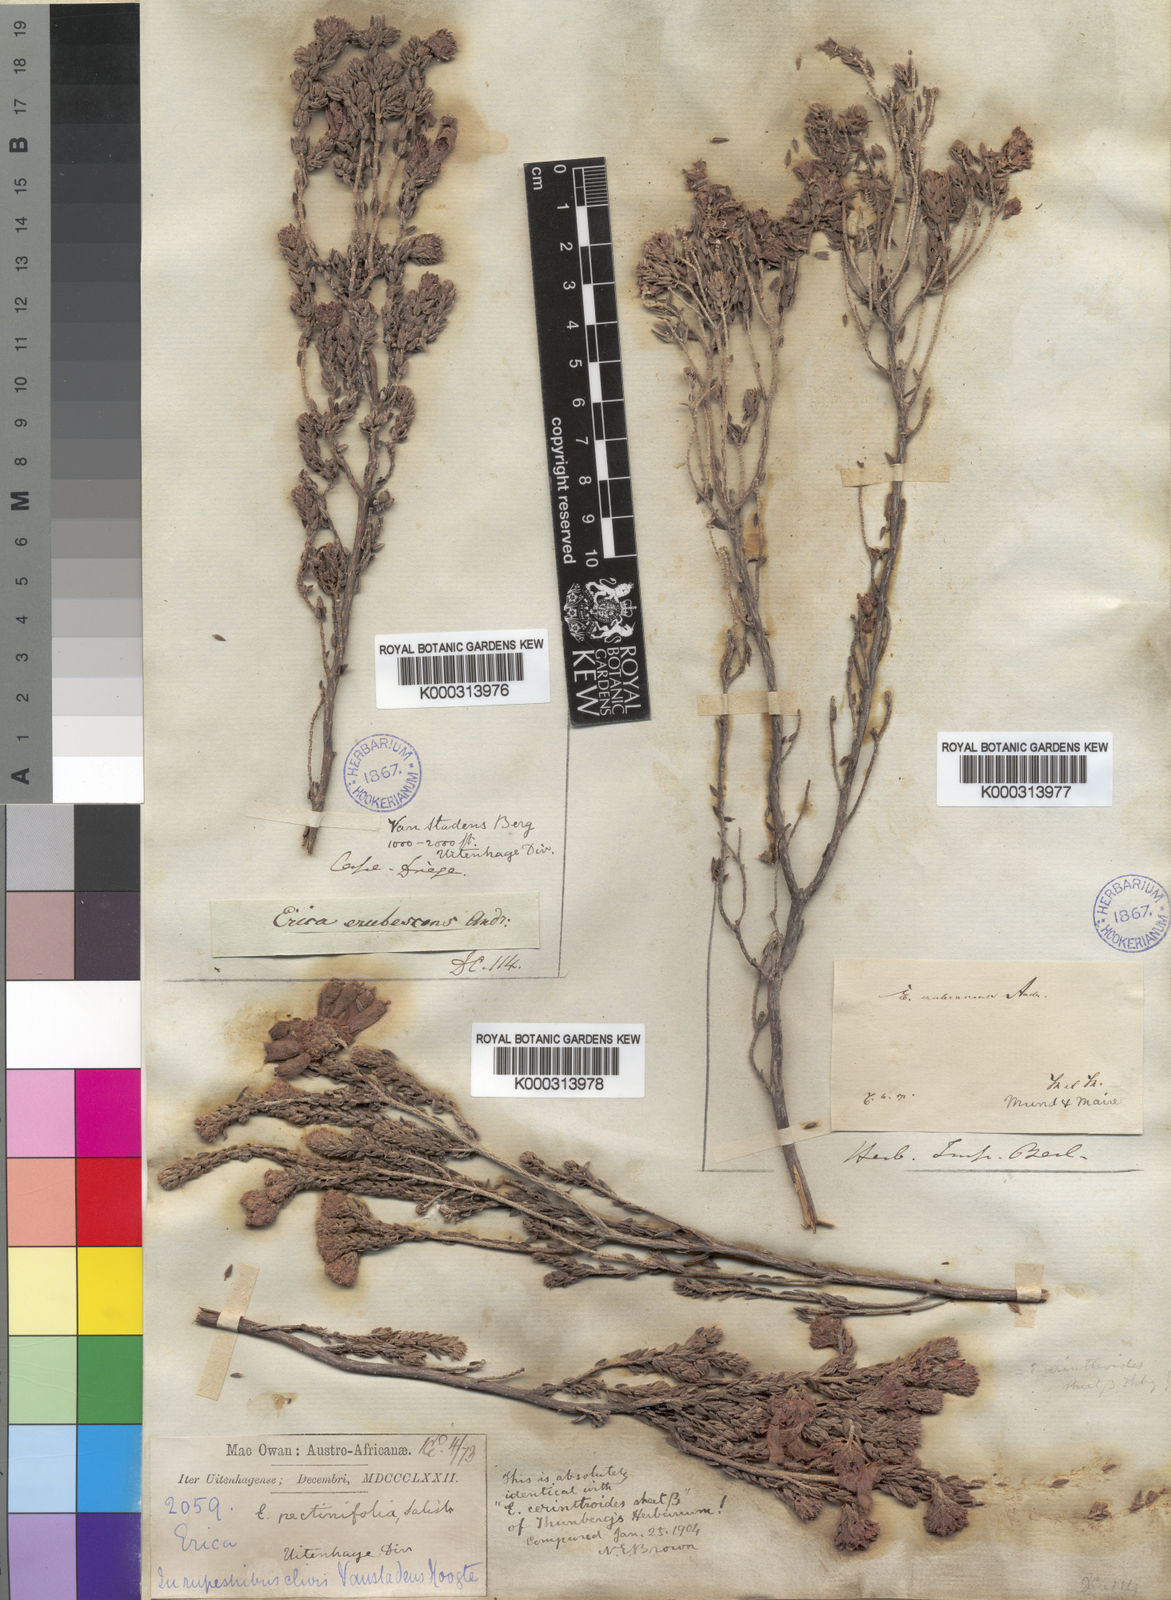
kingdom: Plantae
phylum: Tracheophyta
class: Magnoliopsida
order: Ericales
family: Ericaceae
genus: Erica
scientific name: Erica pectinifolia
